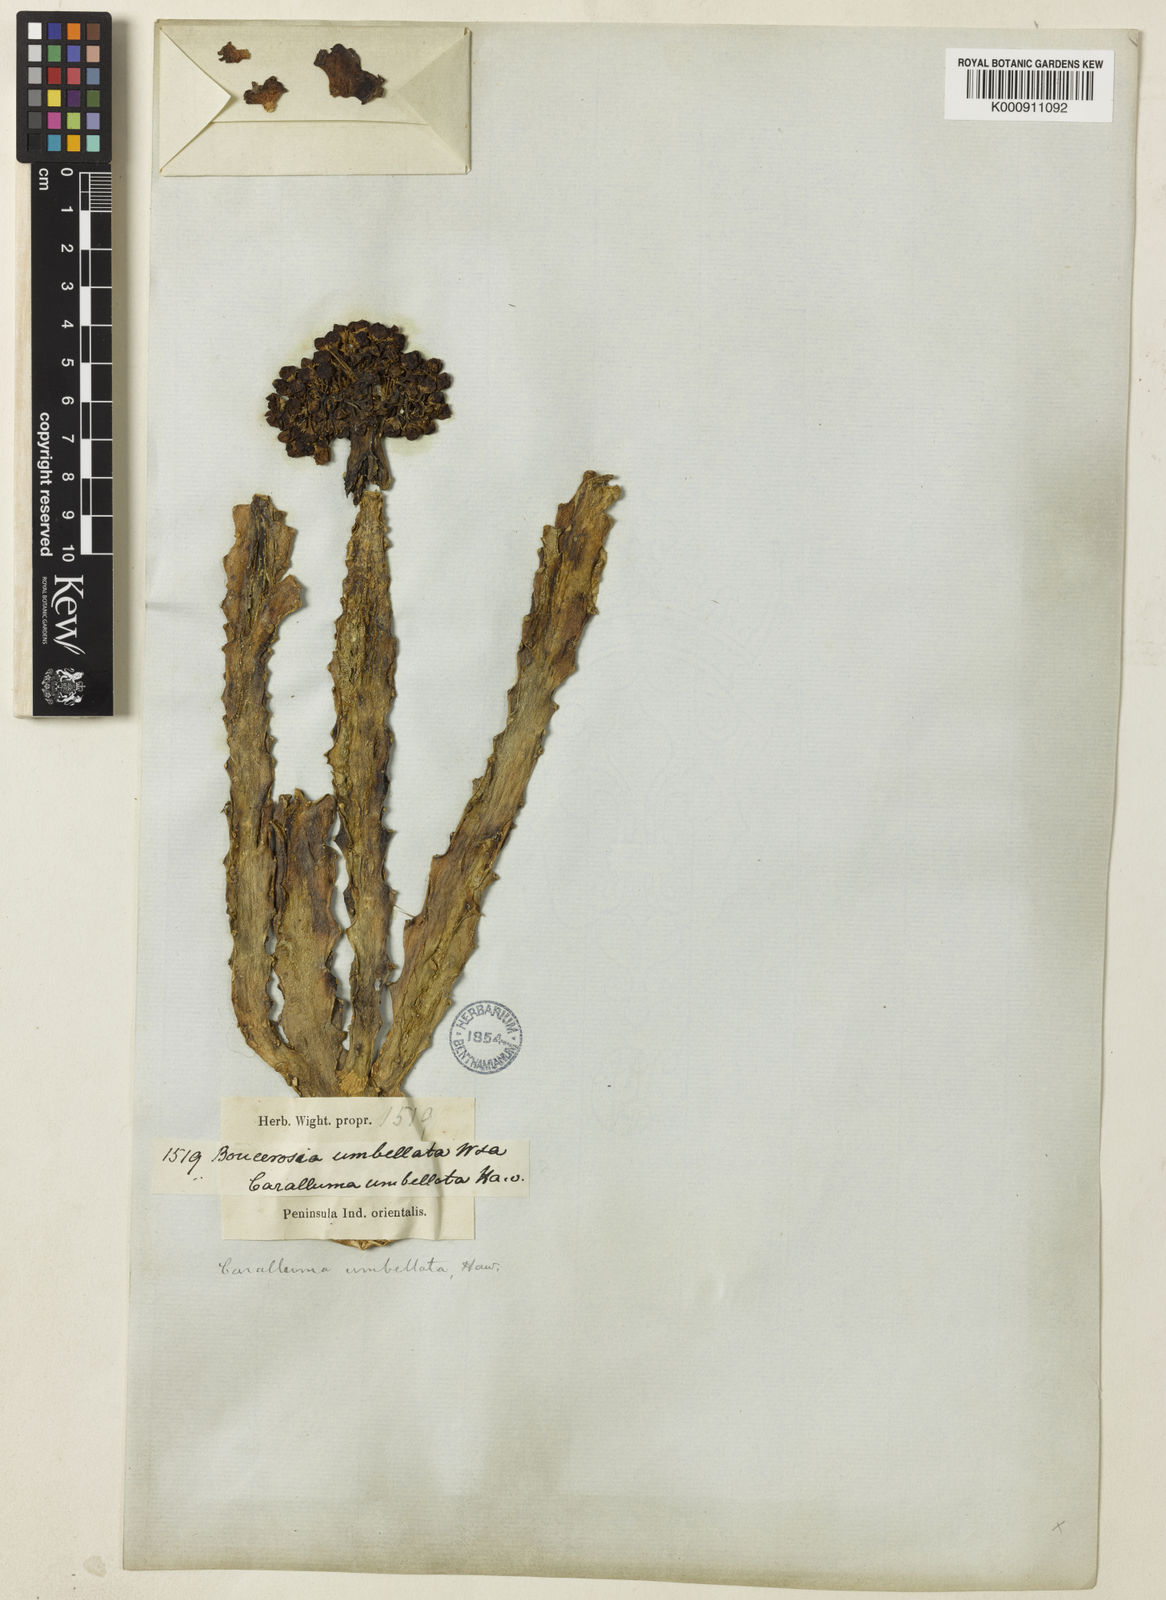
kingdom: Plantae
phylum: Tracheophyta
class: Magnoliopsida
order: Gentianales
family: Apocynaceae
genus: Ceropegia
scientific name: Ceropegia umbellata
